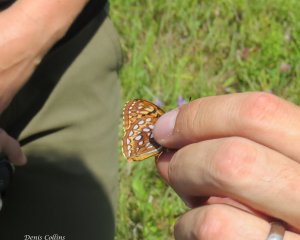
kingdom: Animalia
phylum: Arthropoda
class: Insecta
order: Lepidoptera
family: Nymphalidae
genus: Speyeria
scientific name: Speyeria aphrodite
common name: Aphrodite Fritillary
